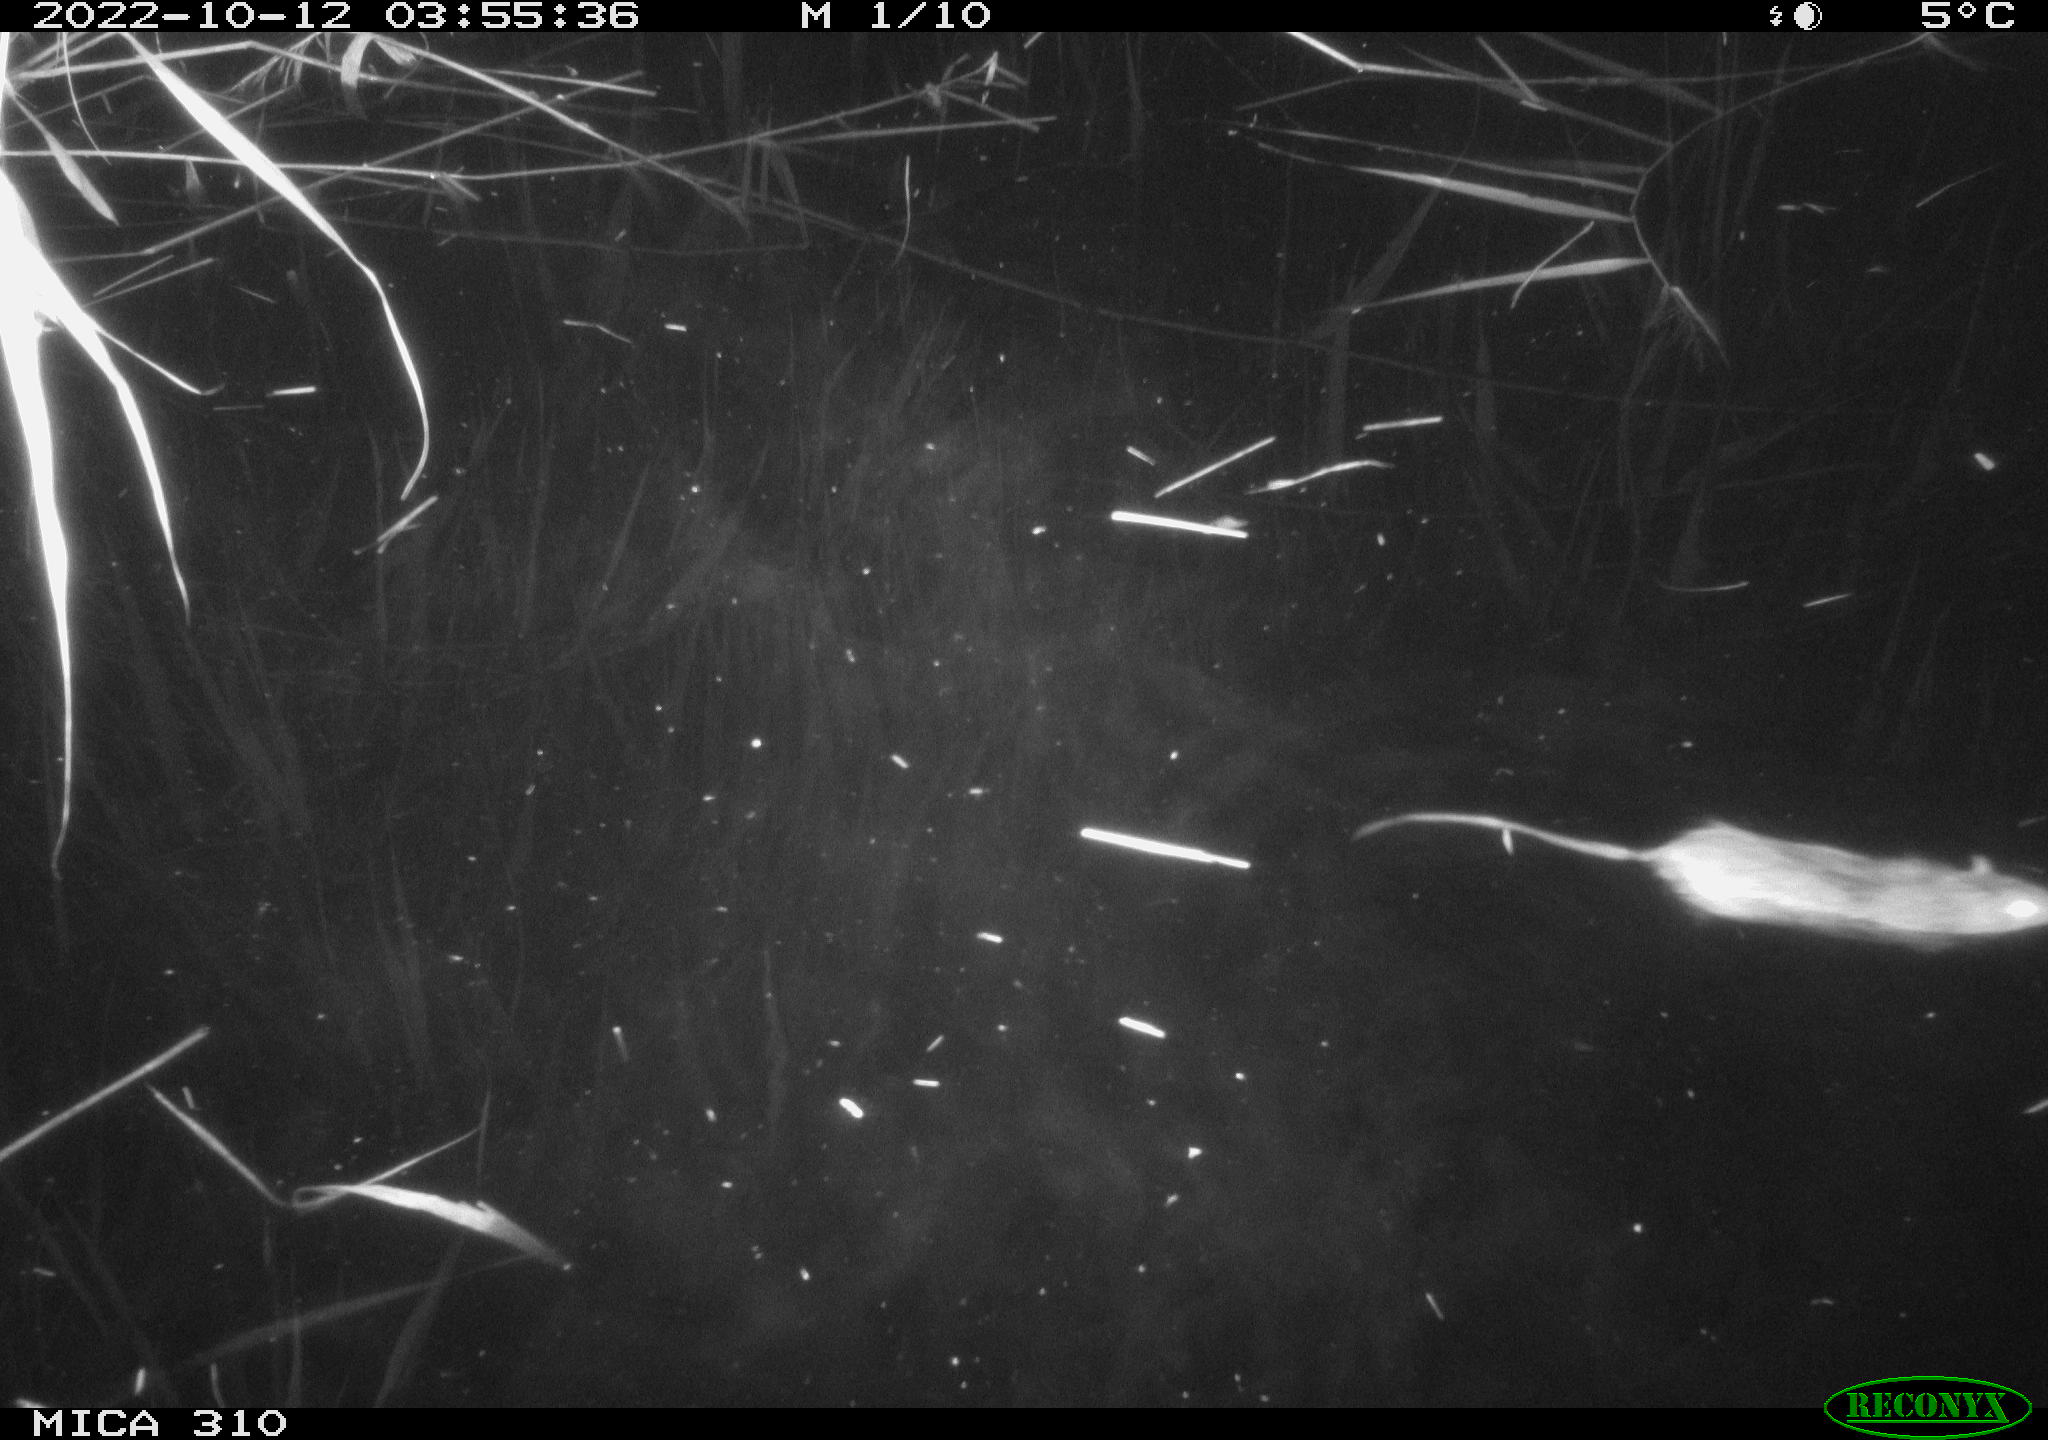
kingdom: Animalia
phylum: Chordata
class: Mammalia
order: Rodentia
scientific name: Rodentia
